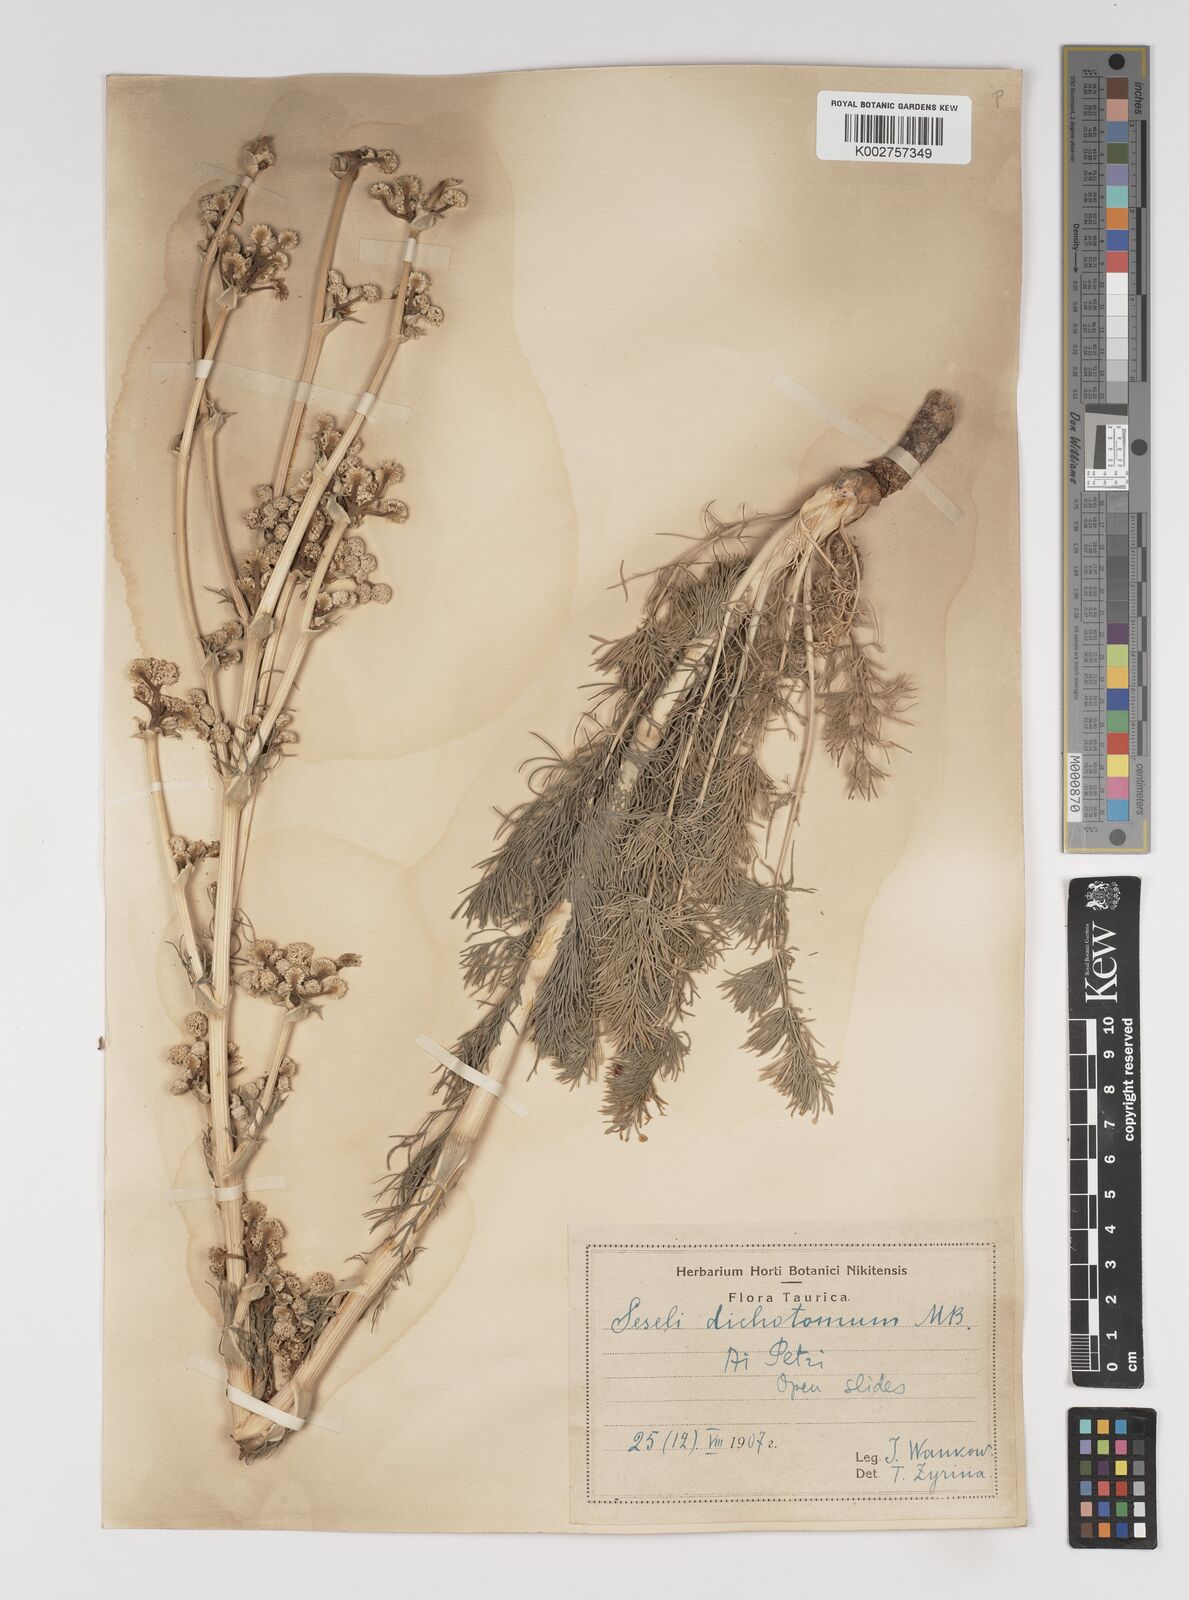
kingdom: Plantae
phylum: Tracheophyta
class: Magnoliopsida
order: Apiales
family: Apiaceae
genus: Hippomarathrum
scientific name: Hippomarathrum dichotomum
